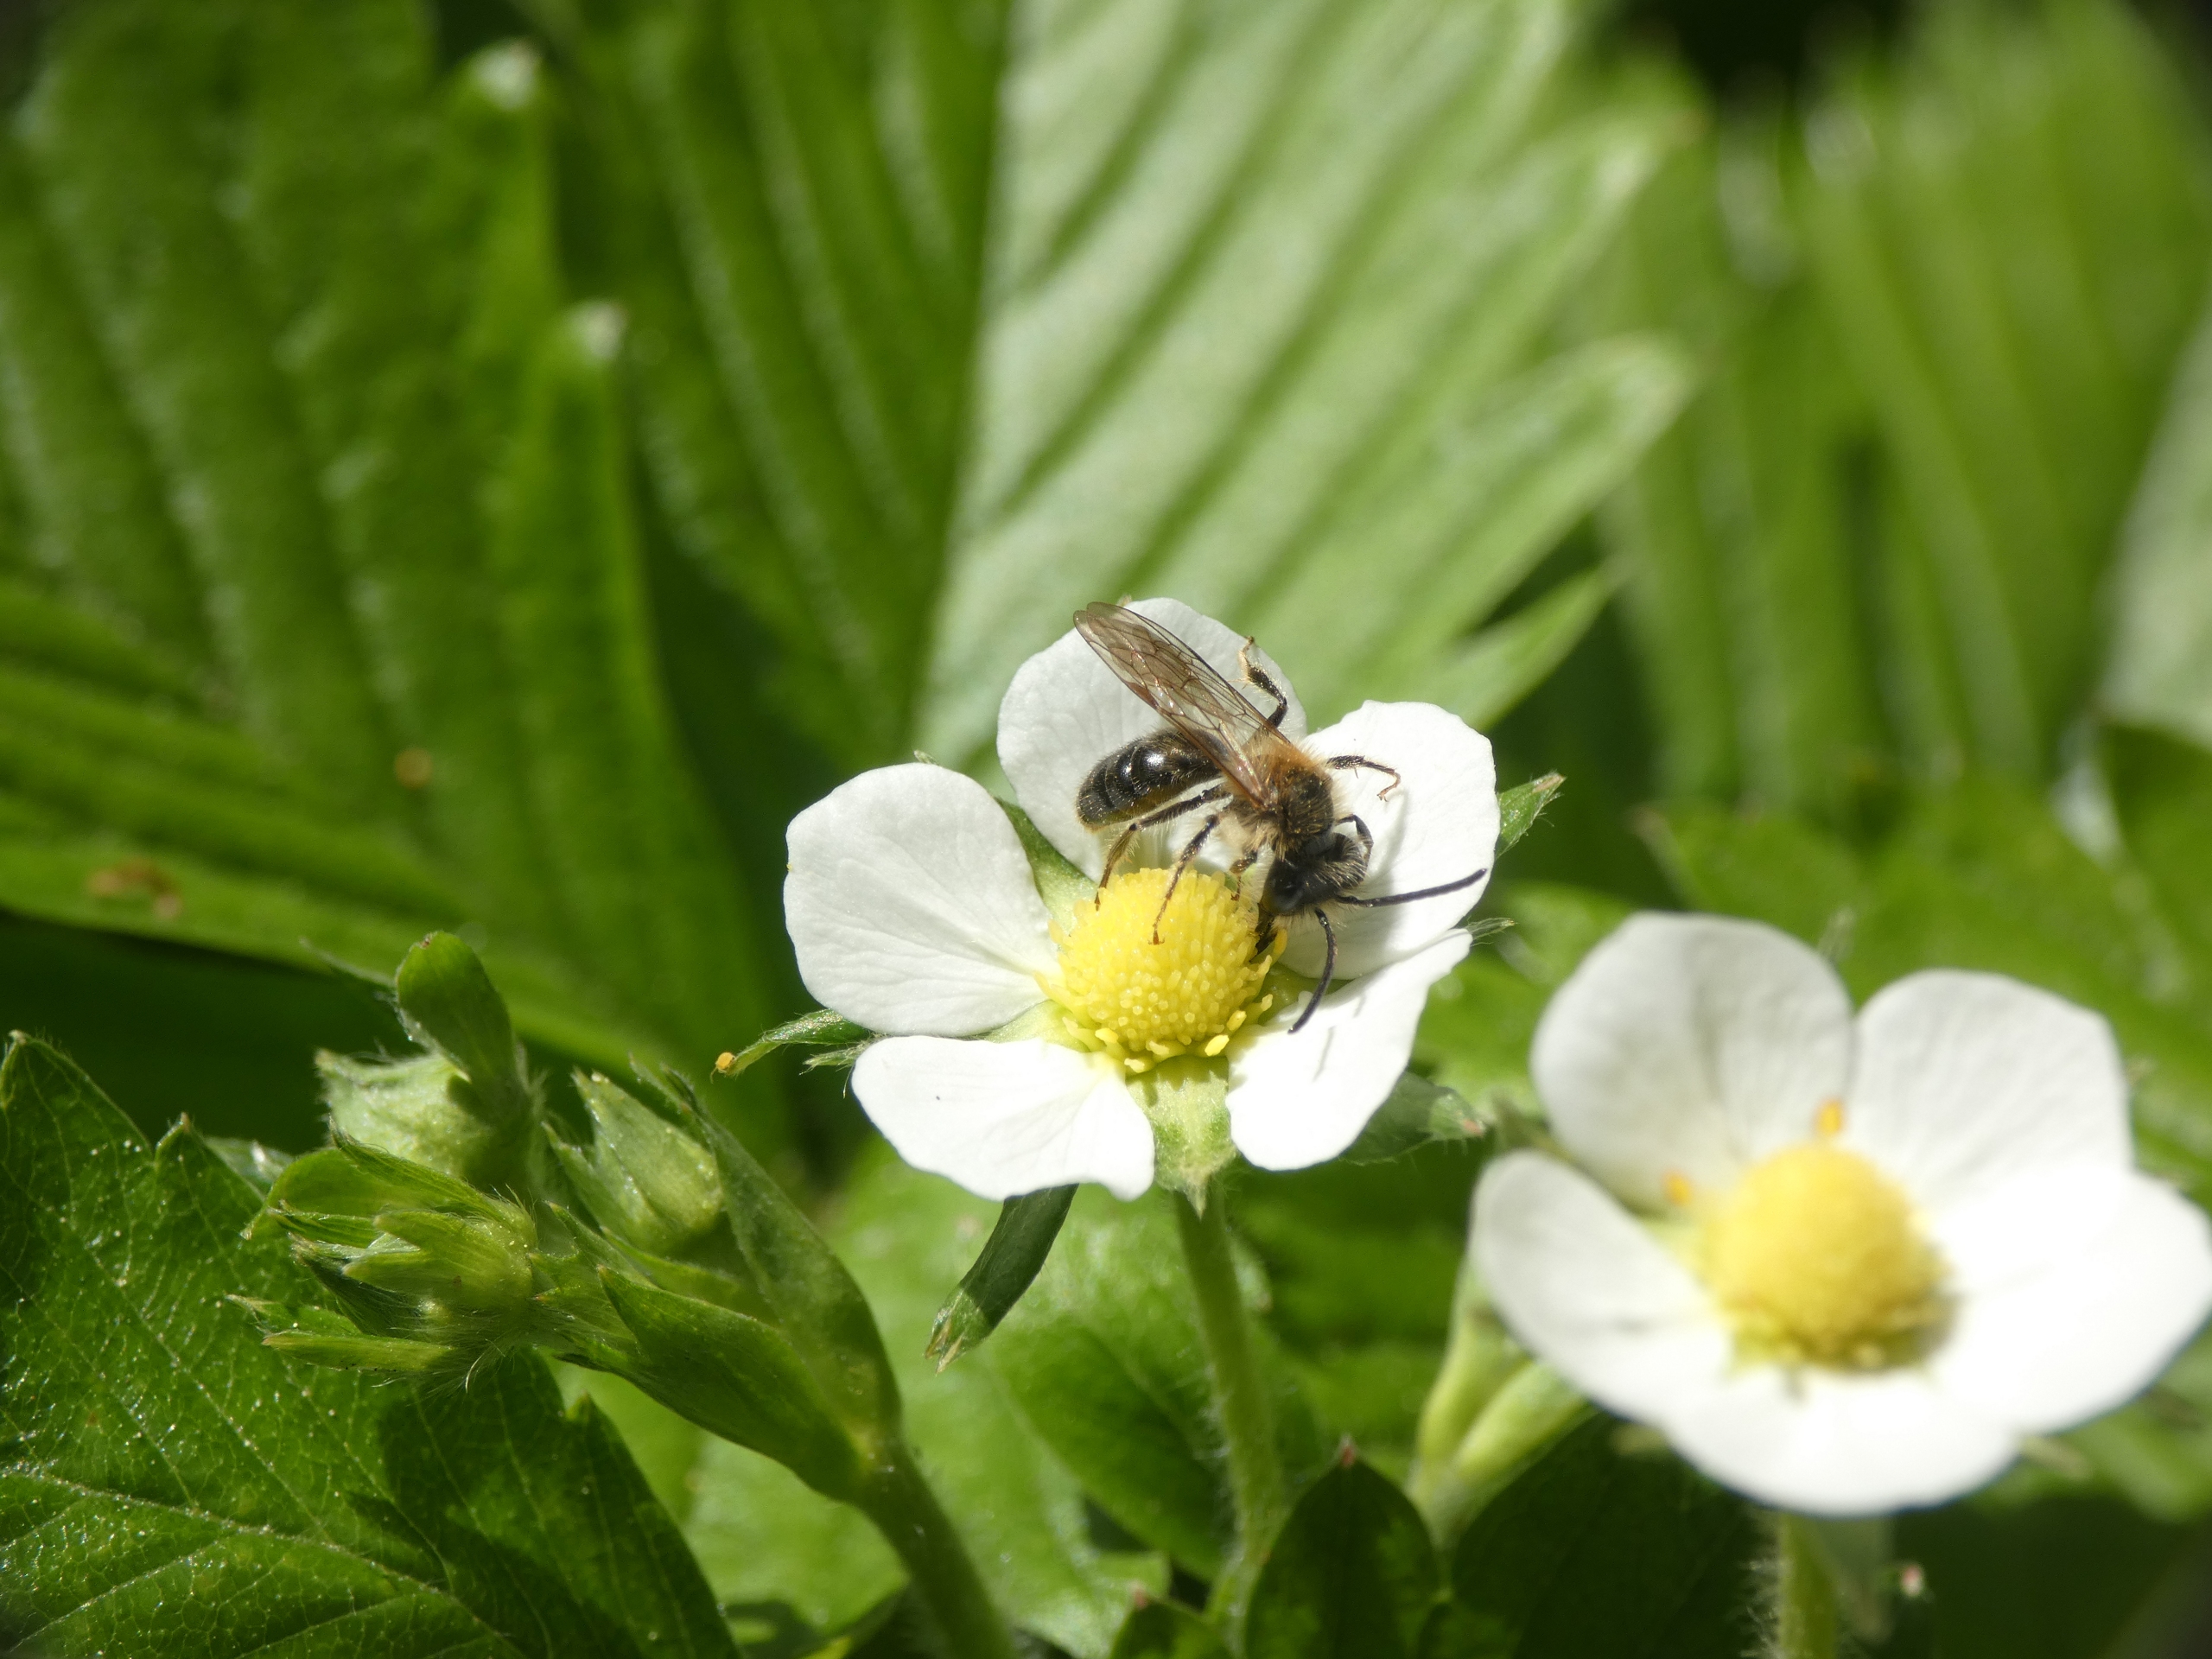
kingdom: Animalia
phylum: Arthropoda
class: Insecta
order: Hymenoptera
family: Andrenidae
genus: Andrena
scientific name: Andrena
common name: Jordbier
